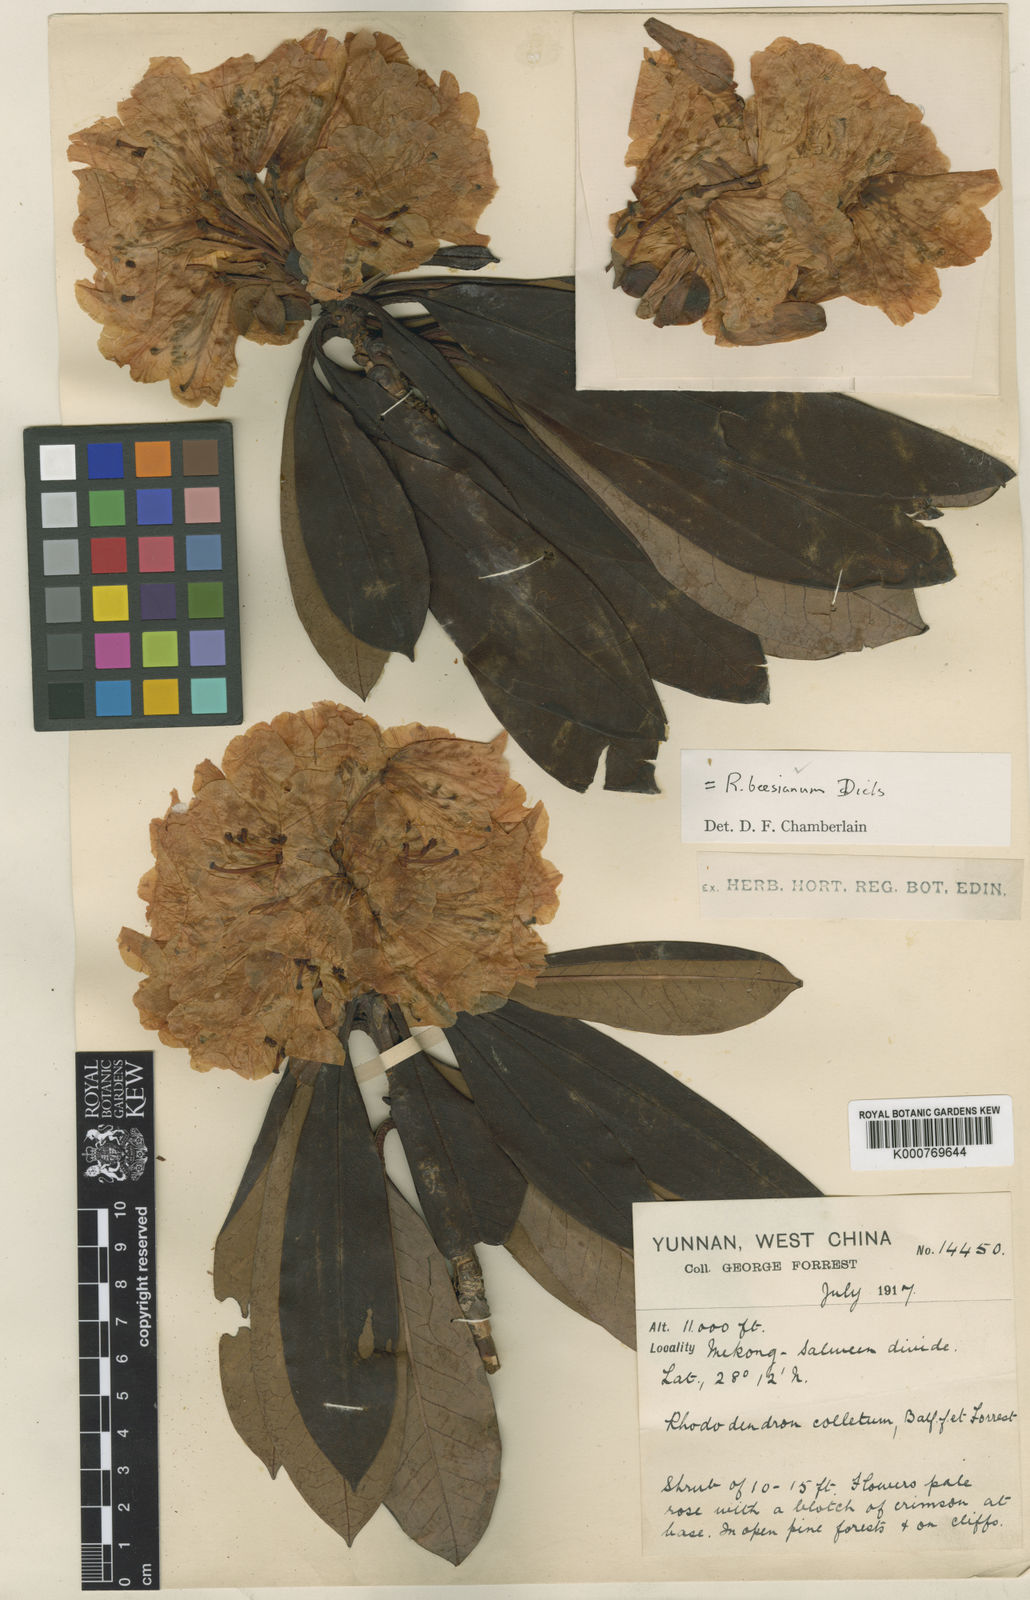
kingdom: Plantae
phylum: Tracheophyta
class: Magnoliopsida
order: Ericales
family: Ericaceae
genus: Rhododendron
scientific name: Rhododendron beesianum
